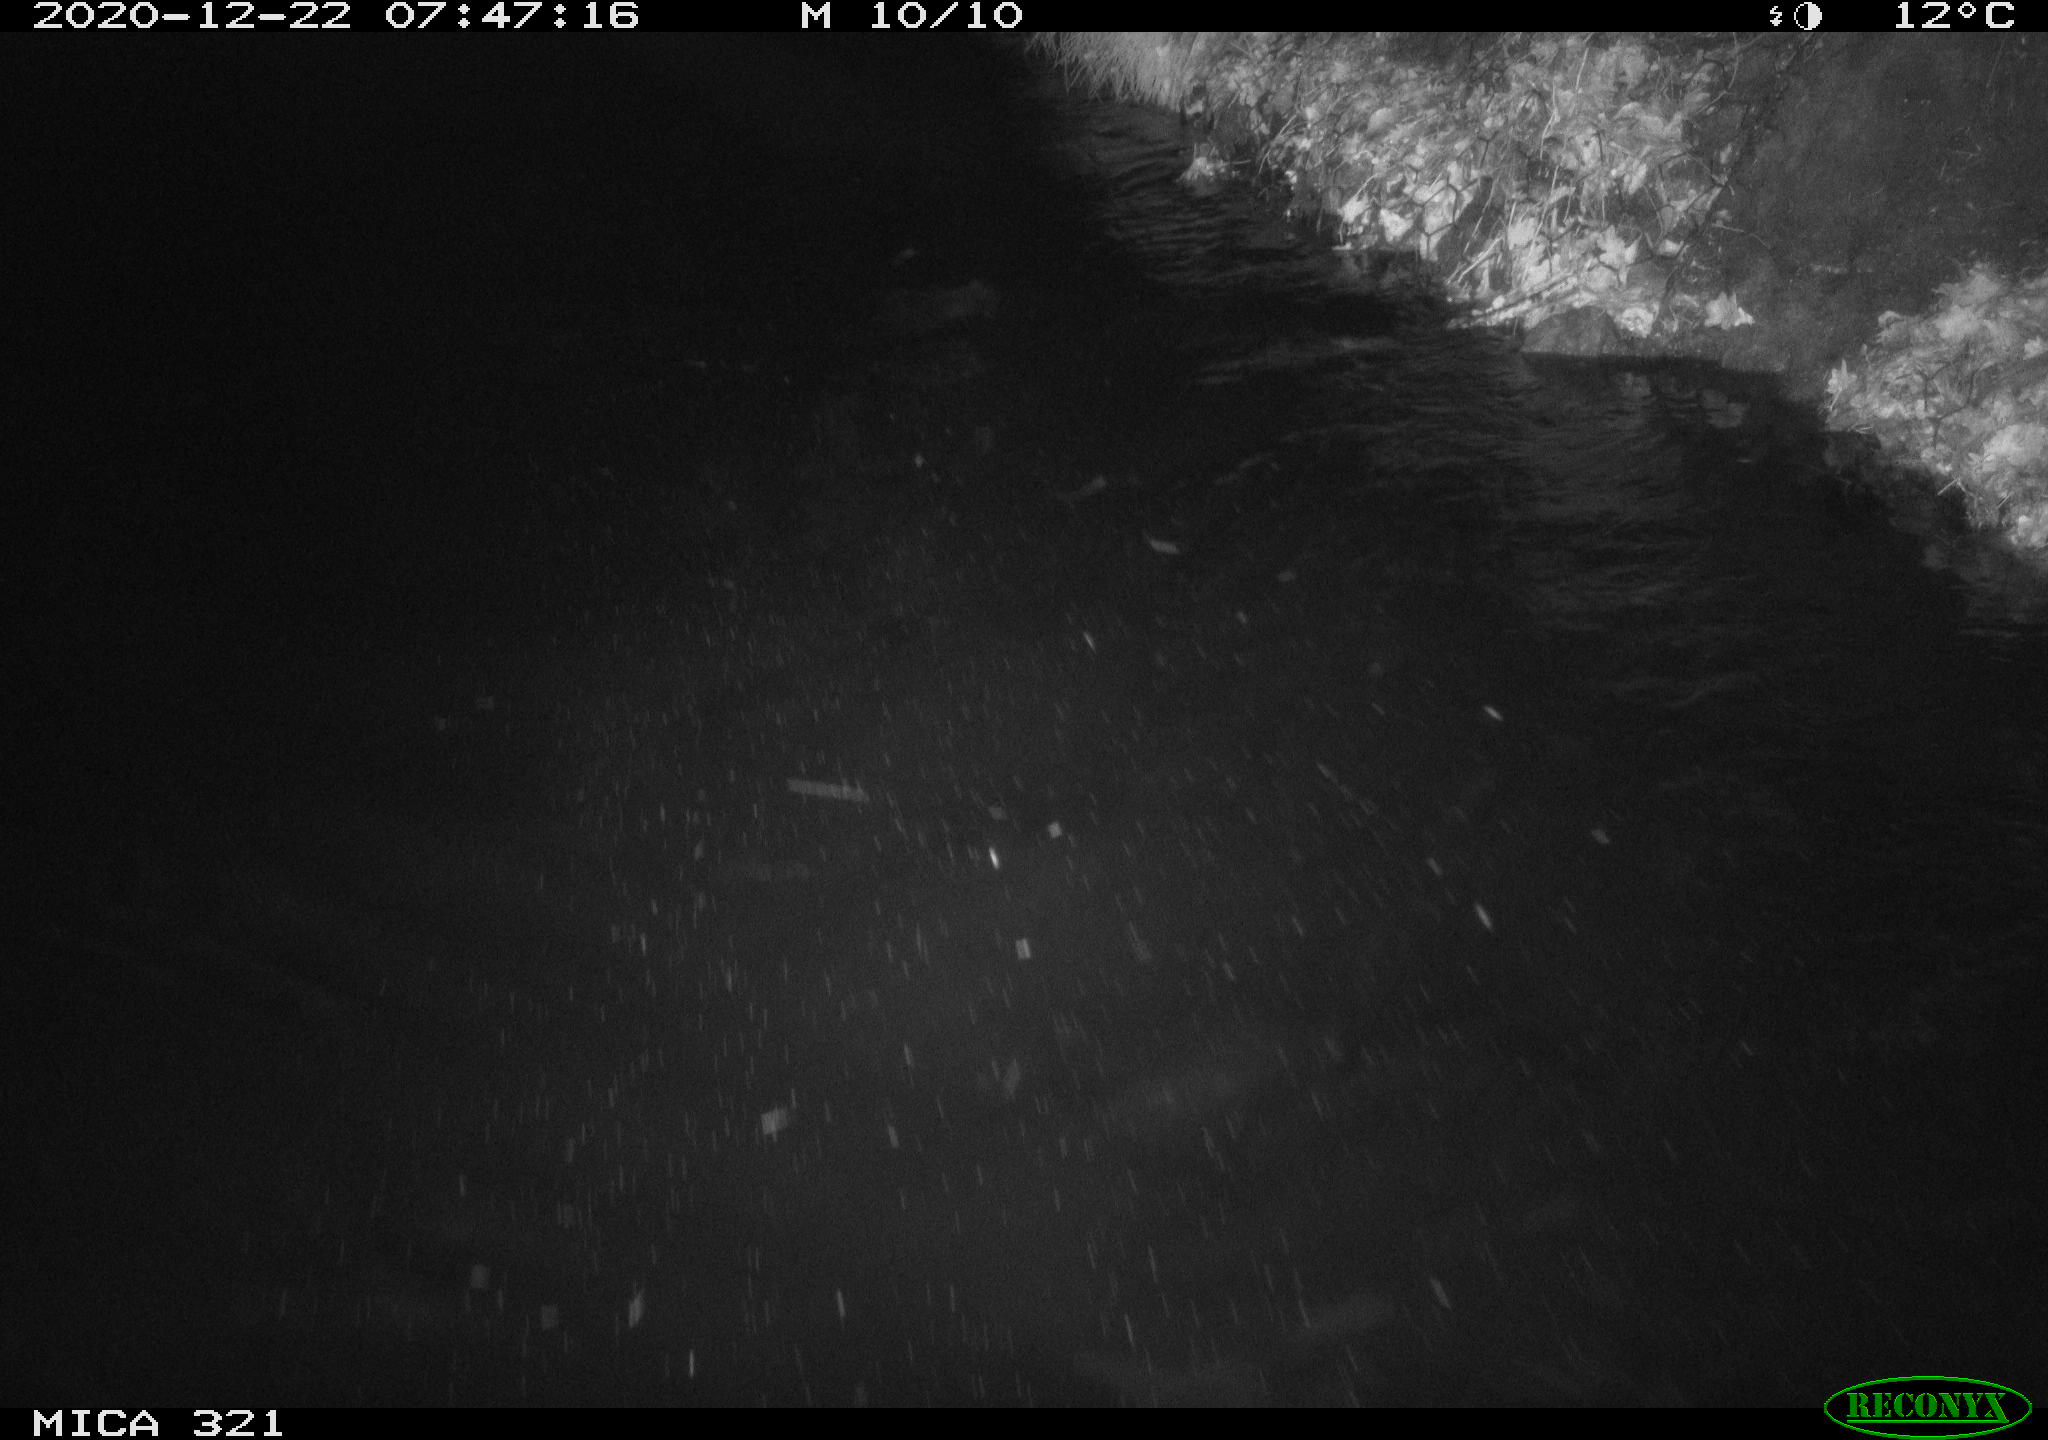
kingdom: Animalia
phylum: Chordata
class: Aves
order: Anseriformes
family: Anatidae
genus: Anas
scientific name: Anas platyrhynchos
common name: Mallard
